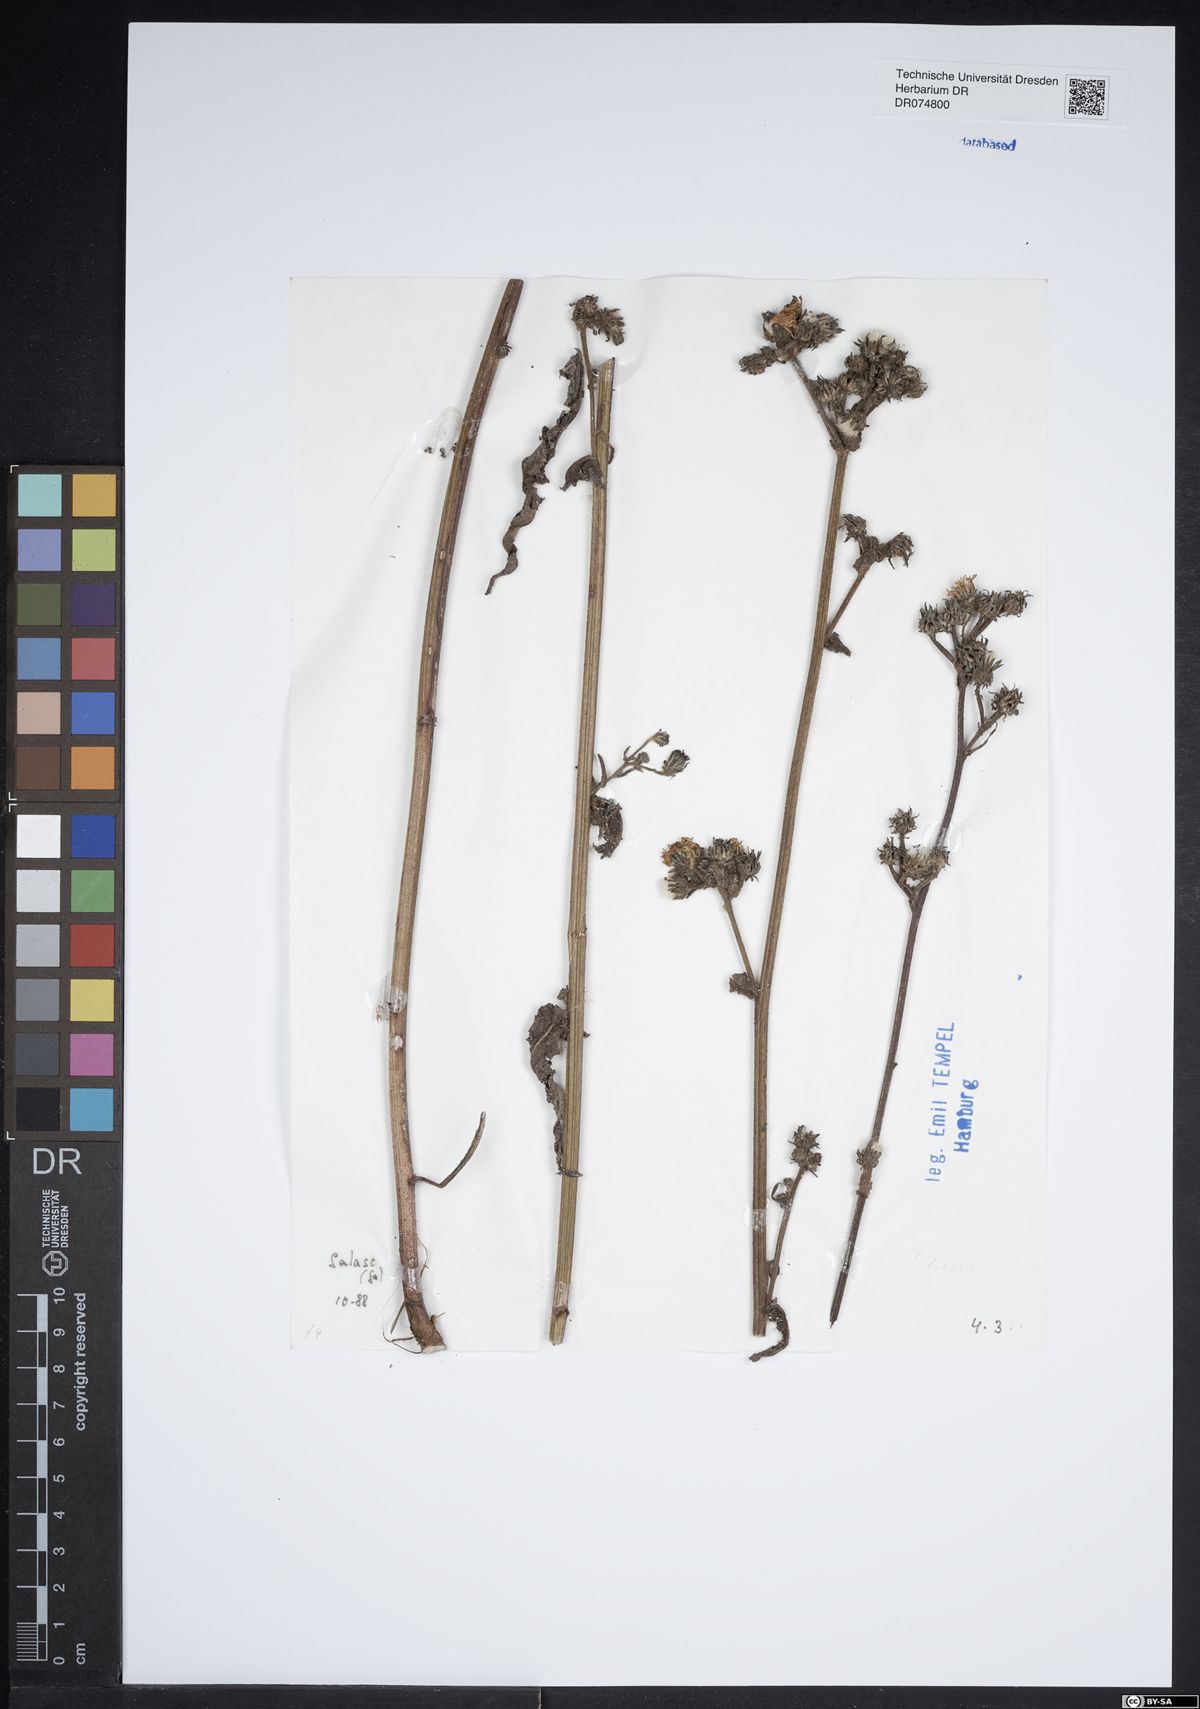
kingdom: Plantae
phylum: Tracheophyta
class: Magnoliopsida
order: Asterales
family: Asteraceae
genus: Picris
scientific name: Picris
